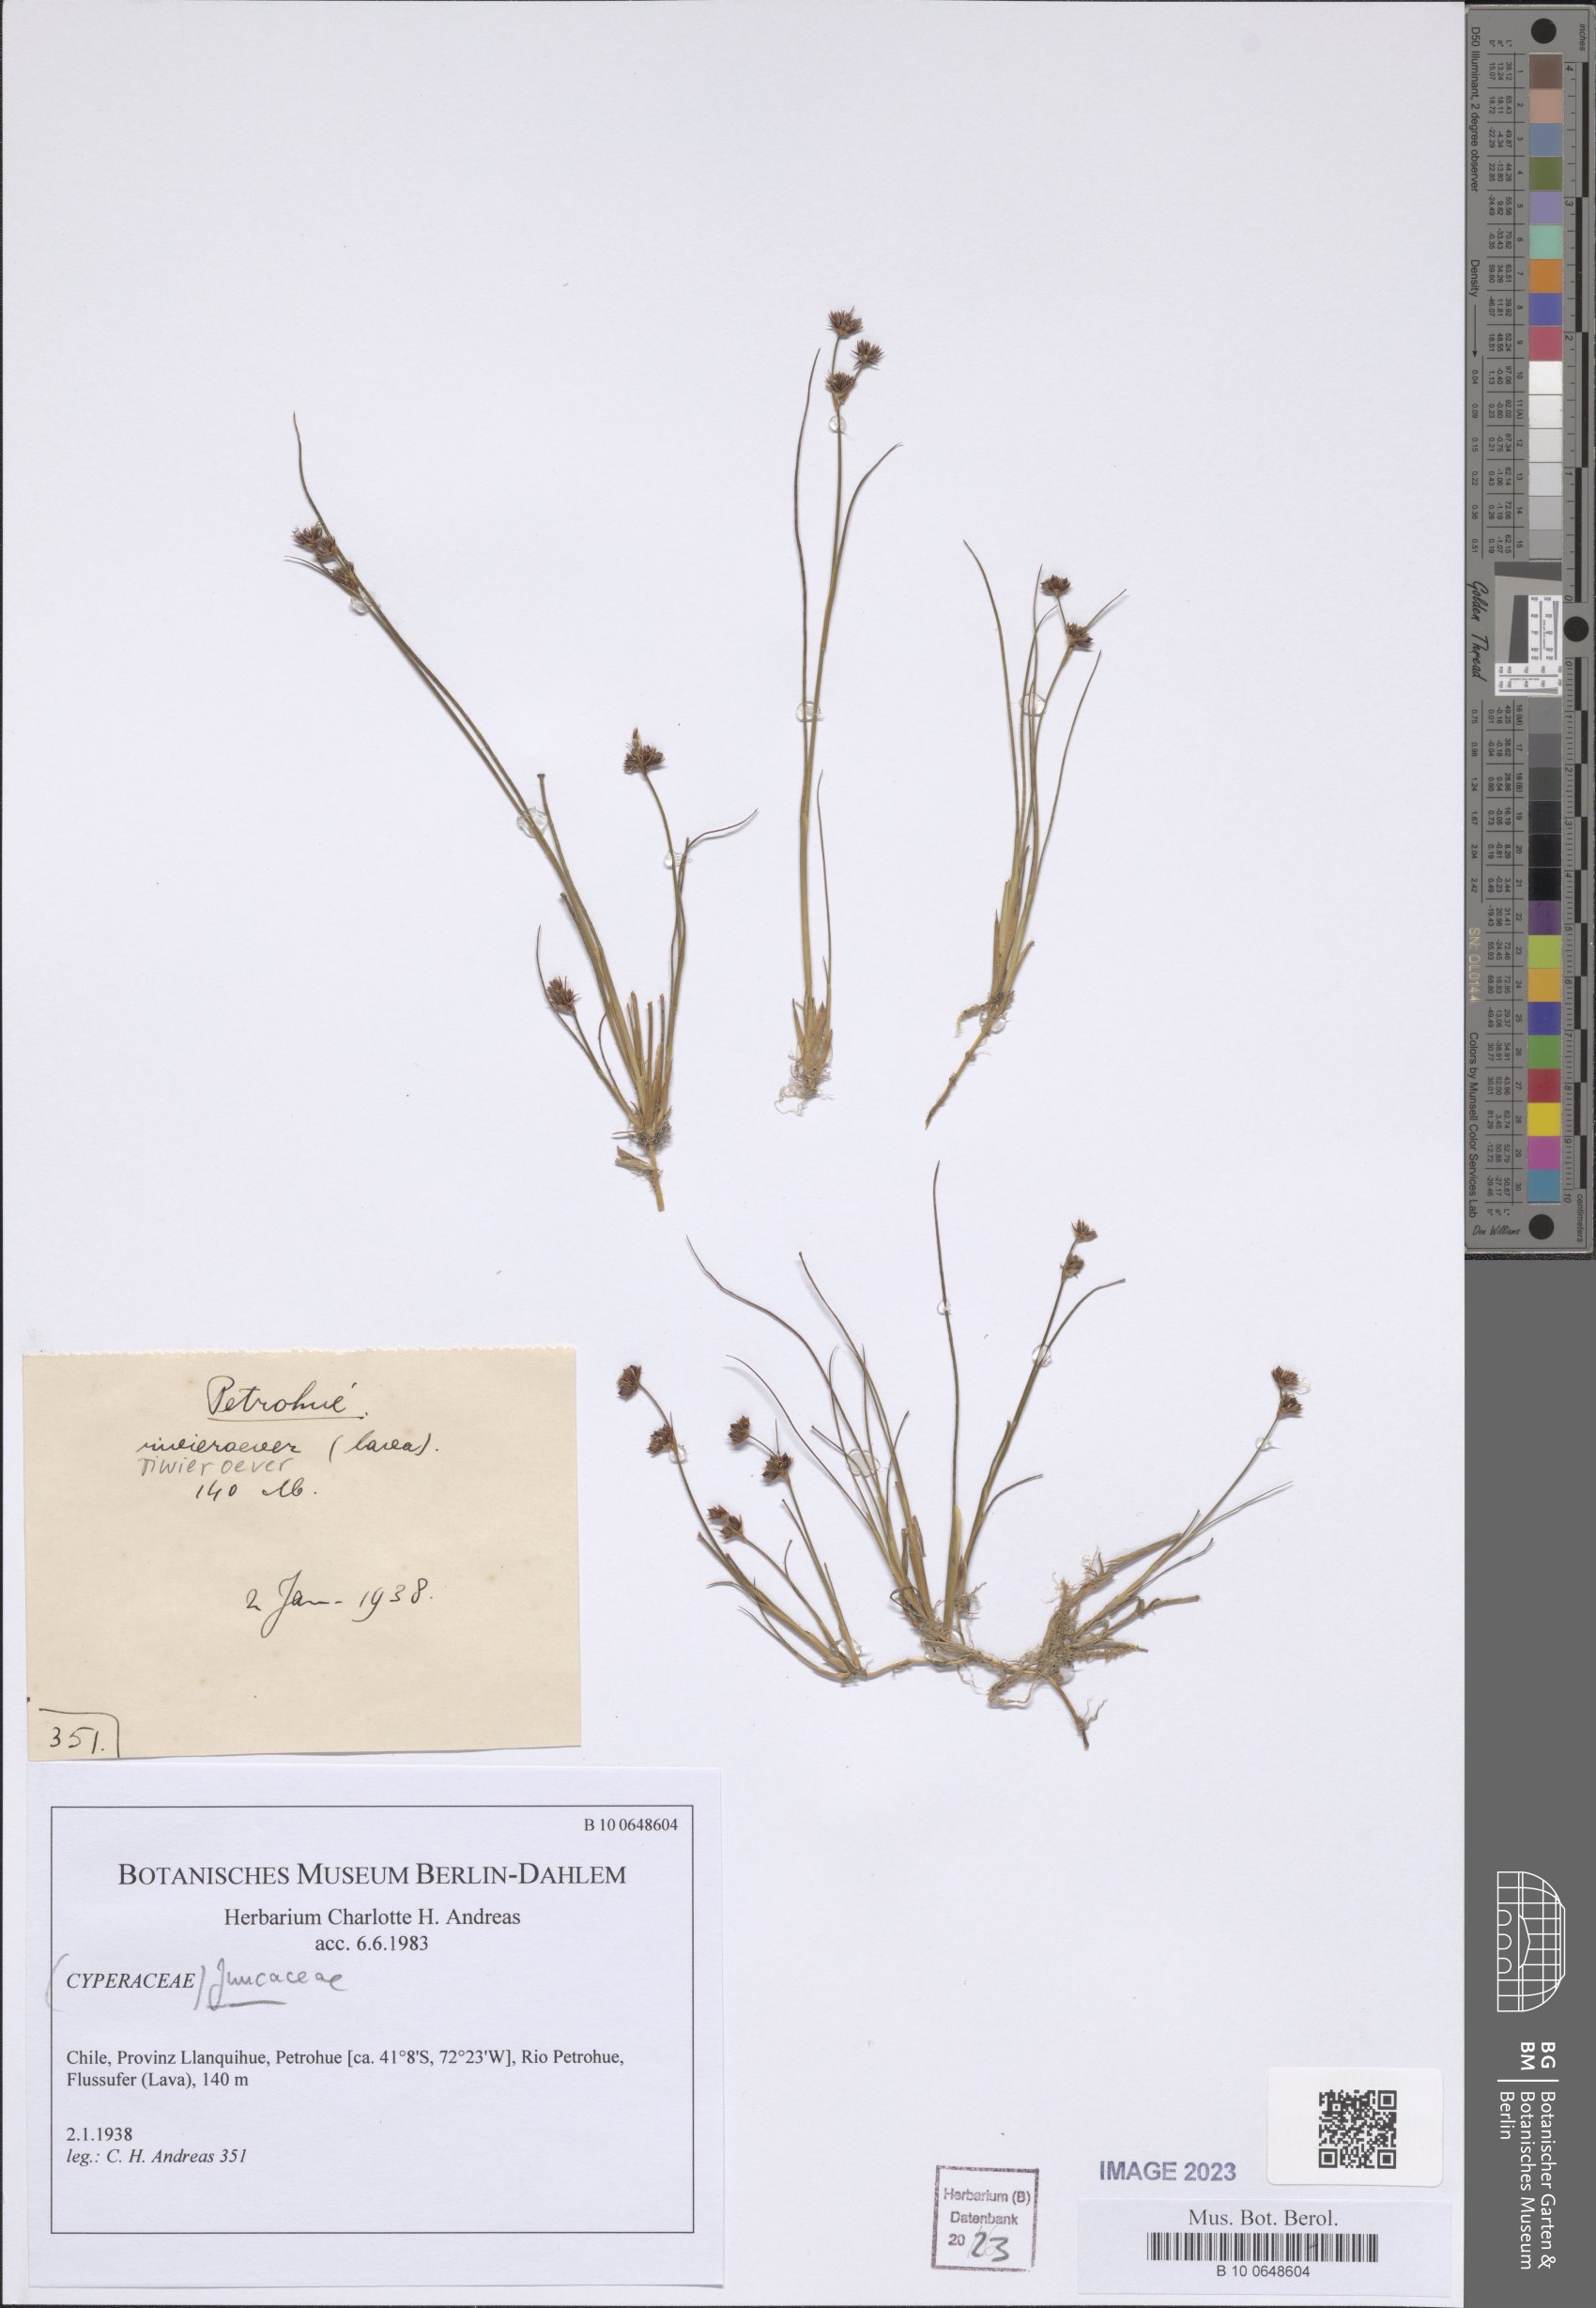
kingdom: Plantae
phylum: Tracheophyta
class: Liliopsida
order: Poales
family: Juncaceae
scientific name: Juncaceae
